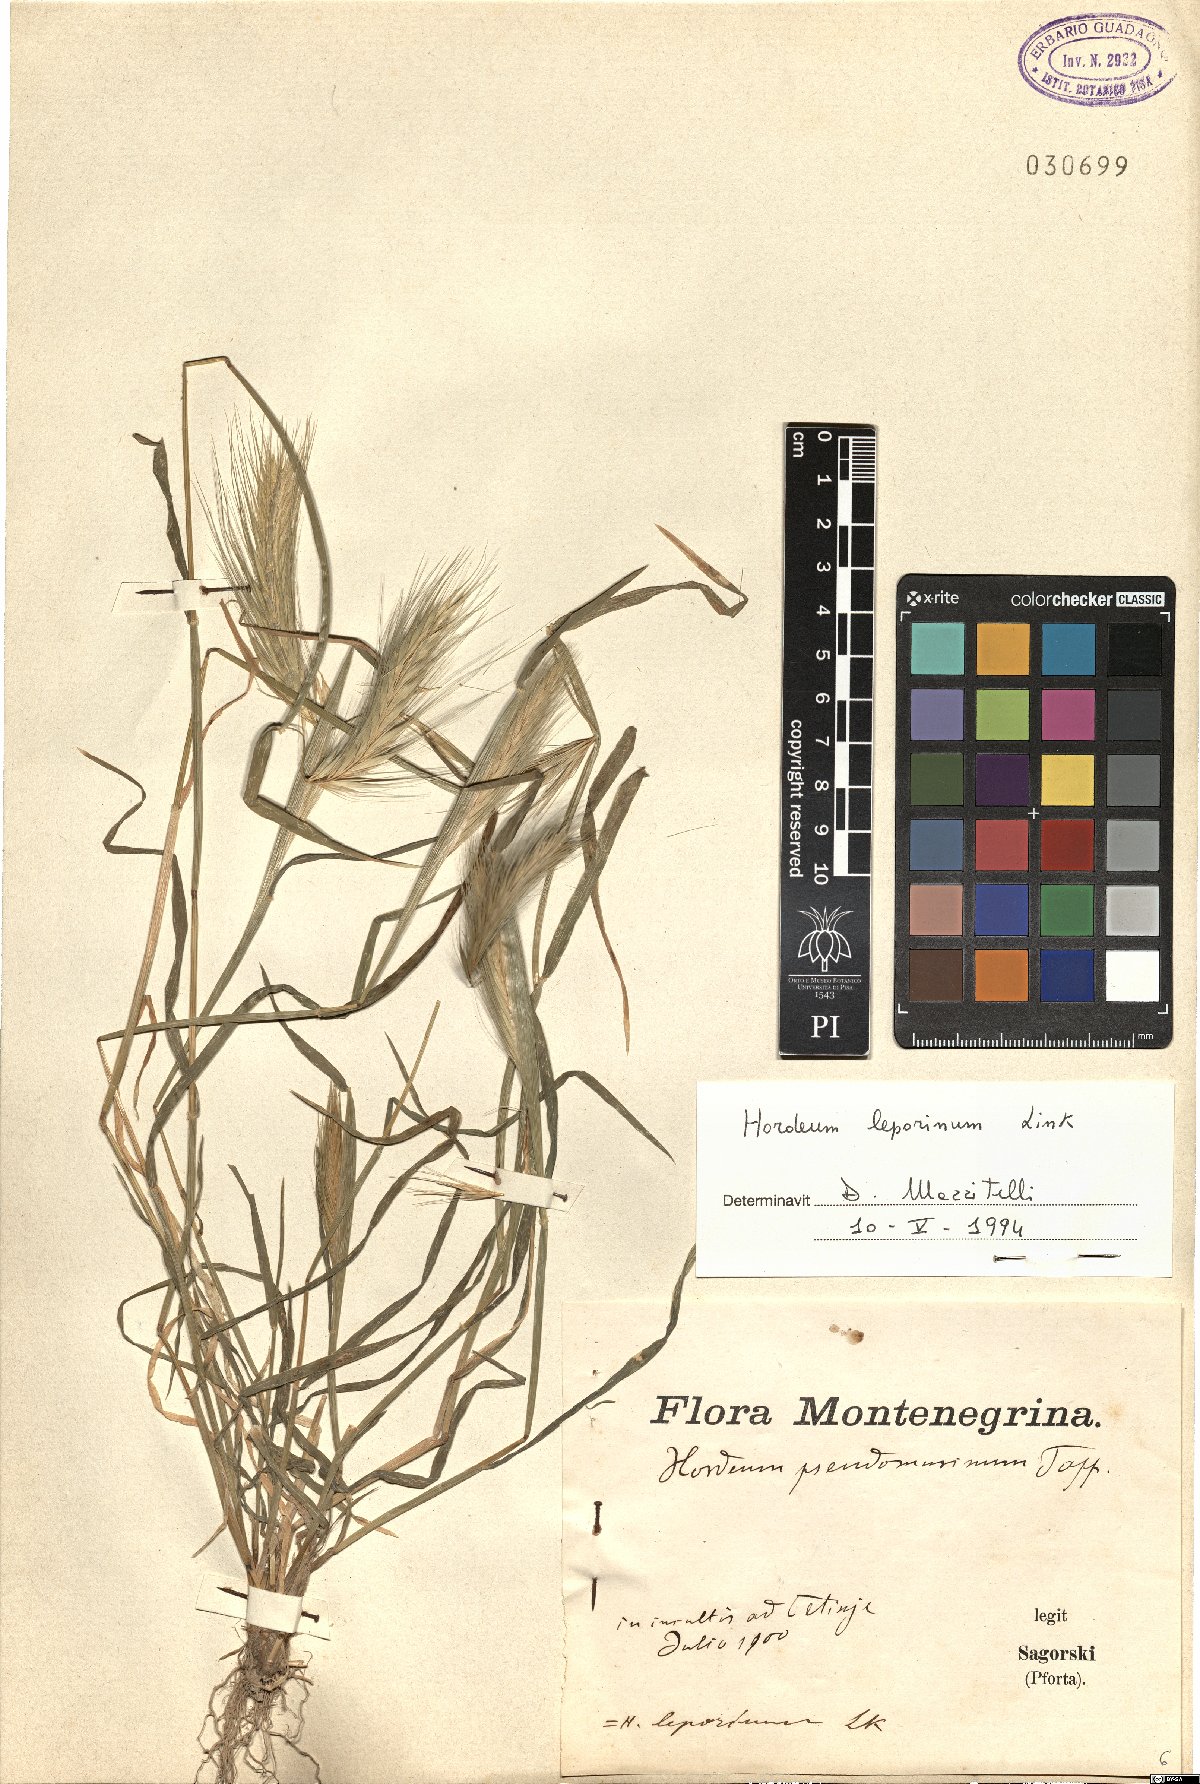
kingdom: Plantae
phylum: Tracheophyta
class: Liliopsida
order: Poales
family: Poaceae
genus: Hordeum
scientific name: Hordeum murinum
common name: Wall barley
